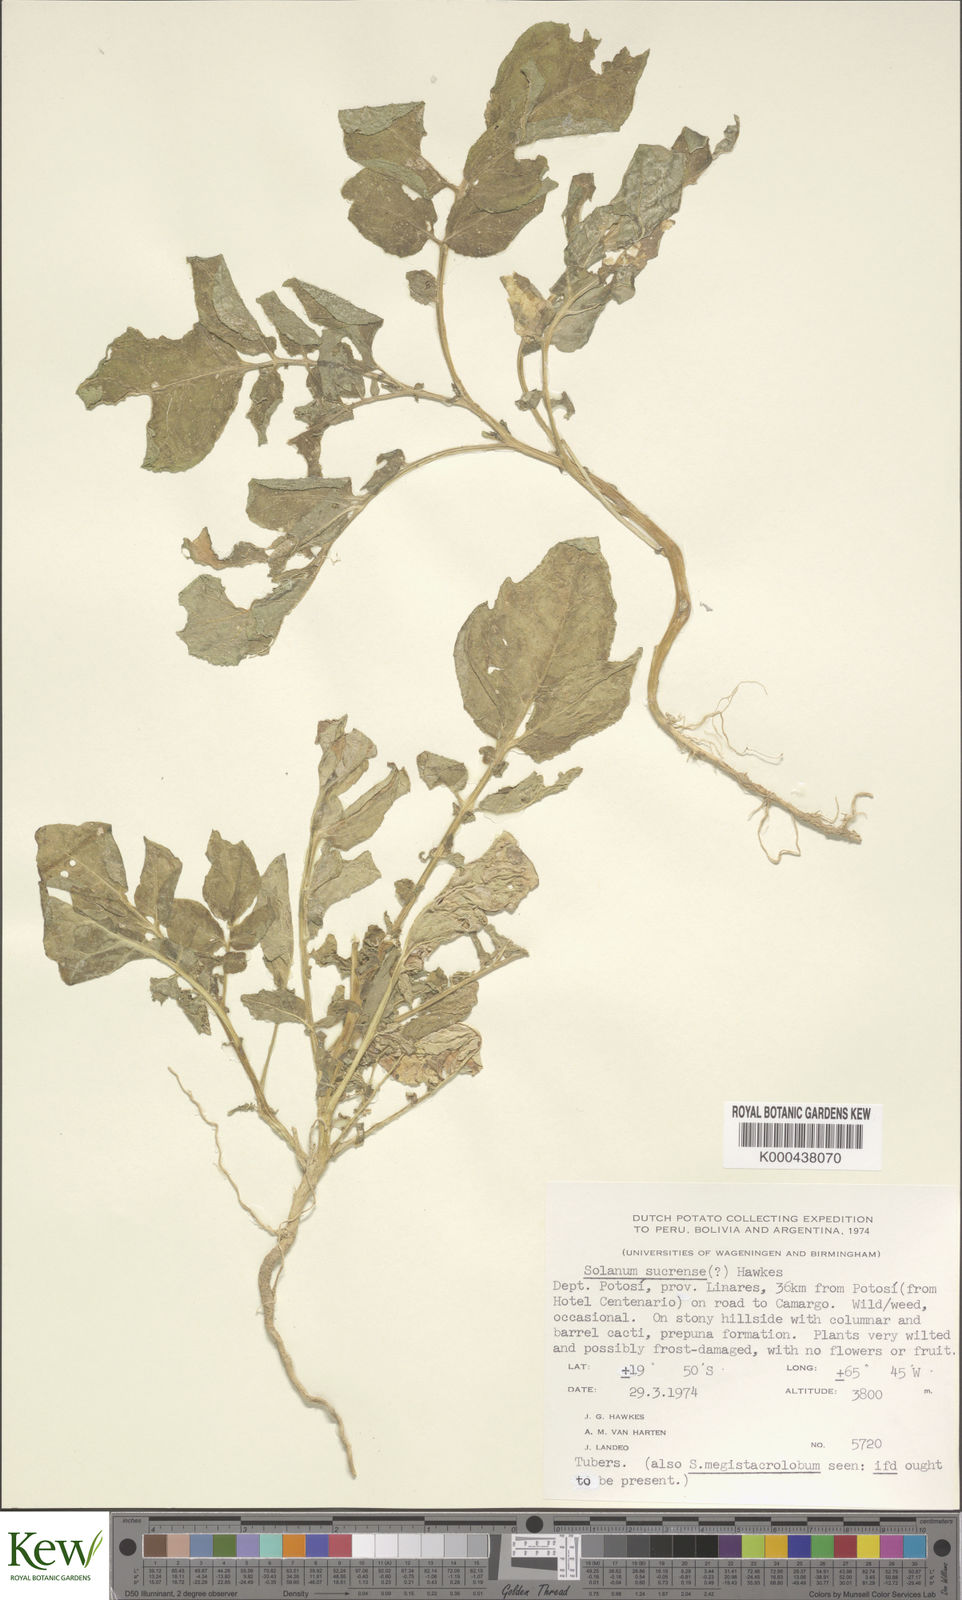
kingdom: Plantae
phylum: Tracheophyta
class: Magnoliopsida
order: Solanales
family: Solanaceae
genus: Solanum
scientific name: Solanum brevicaule
